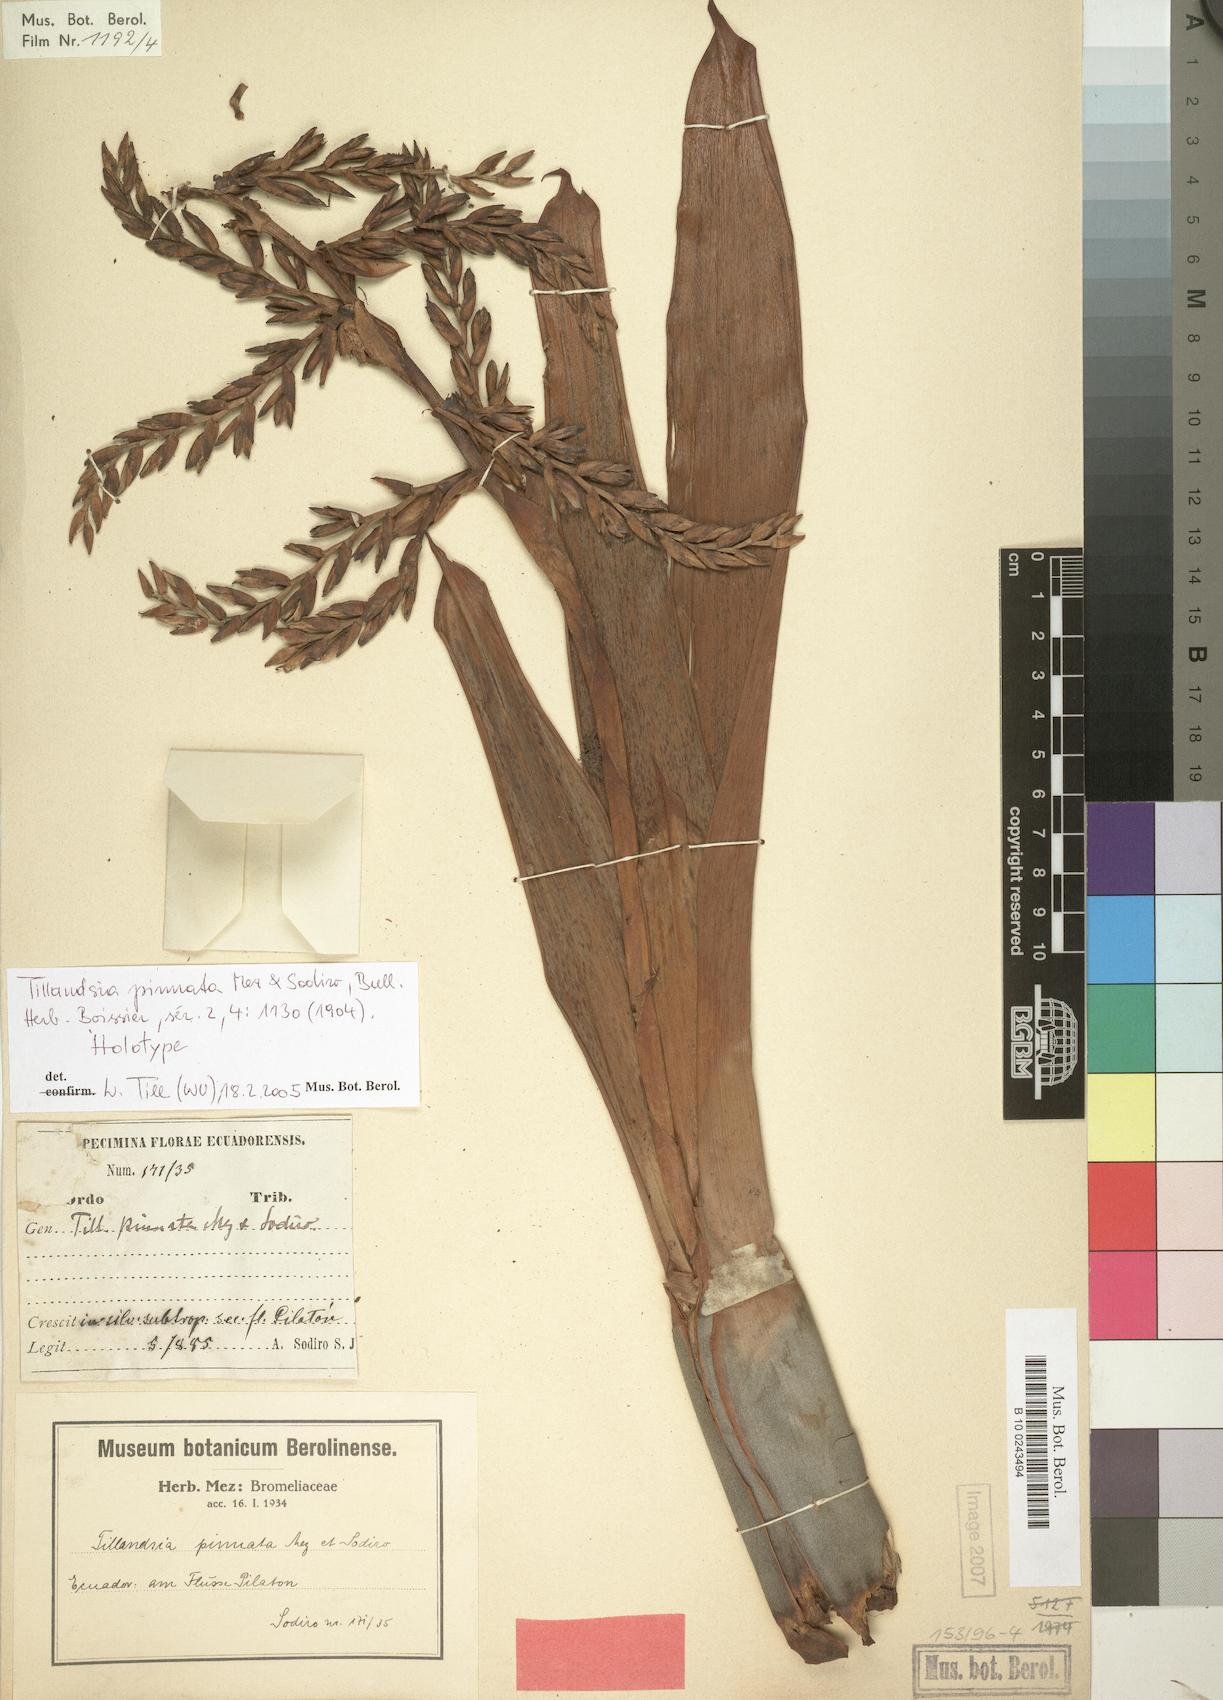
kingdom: Plantae
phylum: Tracheophyta
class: Liliopsida
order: Poales
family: Bromeliaceae
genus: Cipuropsis
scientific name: Cipuropsis pinnata
